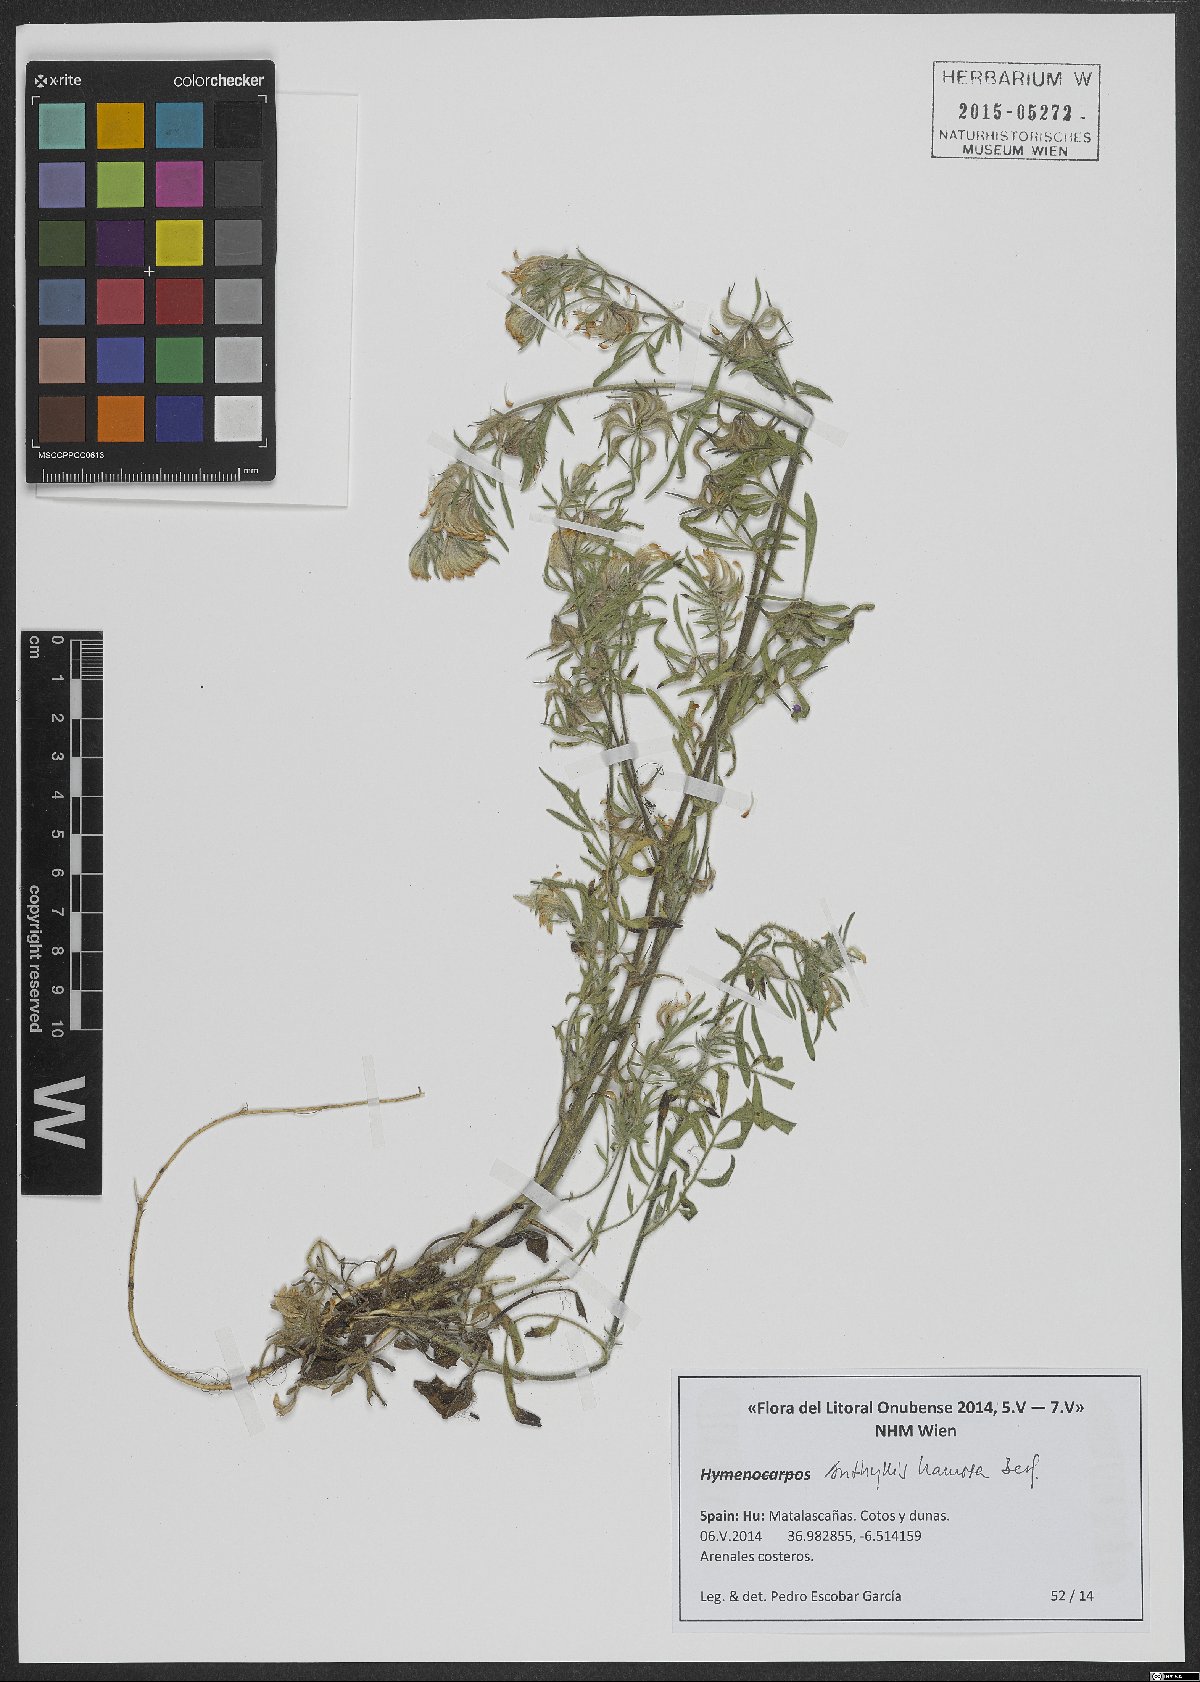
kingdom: Plantae
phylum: Tracheophyta
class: Magnoliopsida
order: Fabales
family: Fabaceae
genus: Anthyllis
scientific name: Anthyllis hamosa
